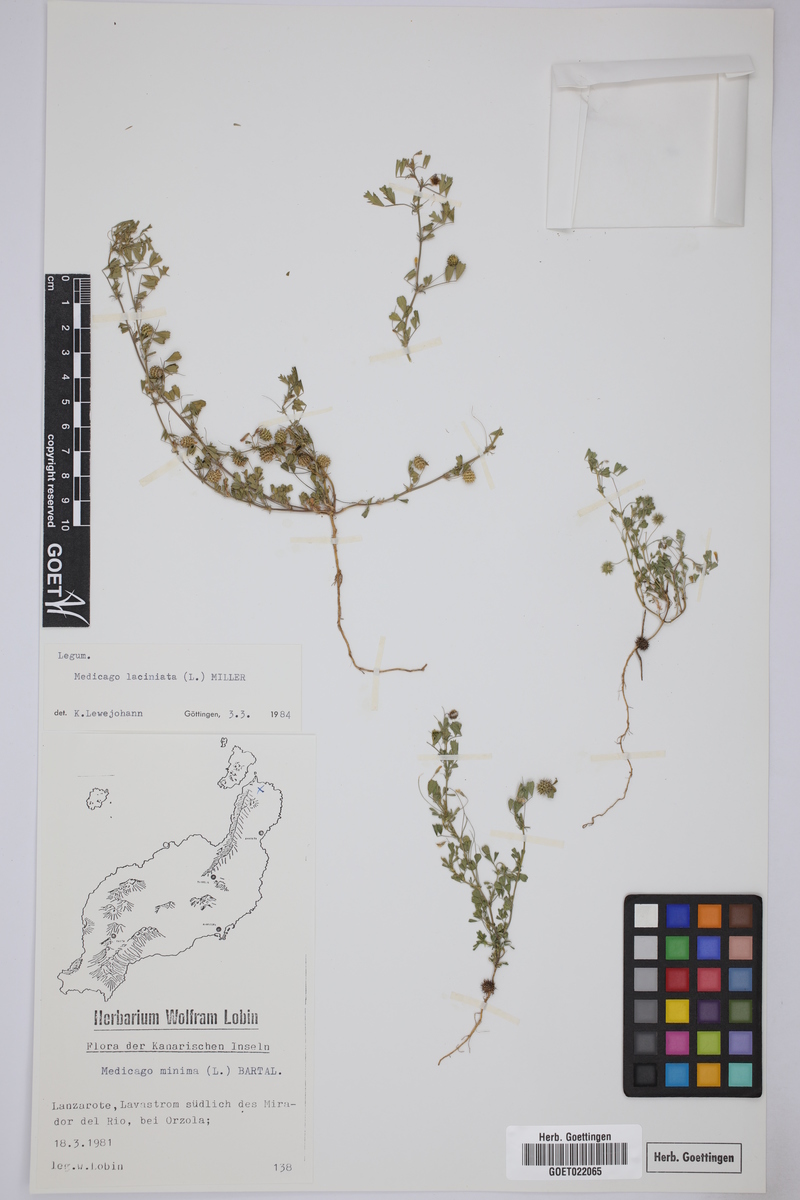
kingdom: Plantae
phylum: Tracheophyta
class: Magnoliopsida
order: Fabales
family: Fabaceae
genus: Medicago
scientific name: Medicago laciniata
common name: Tattered medick
